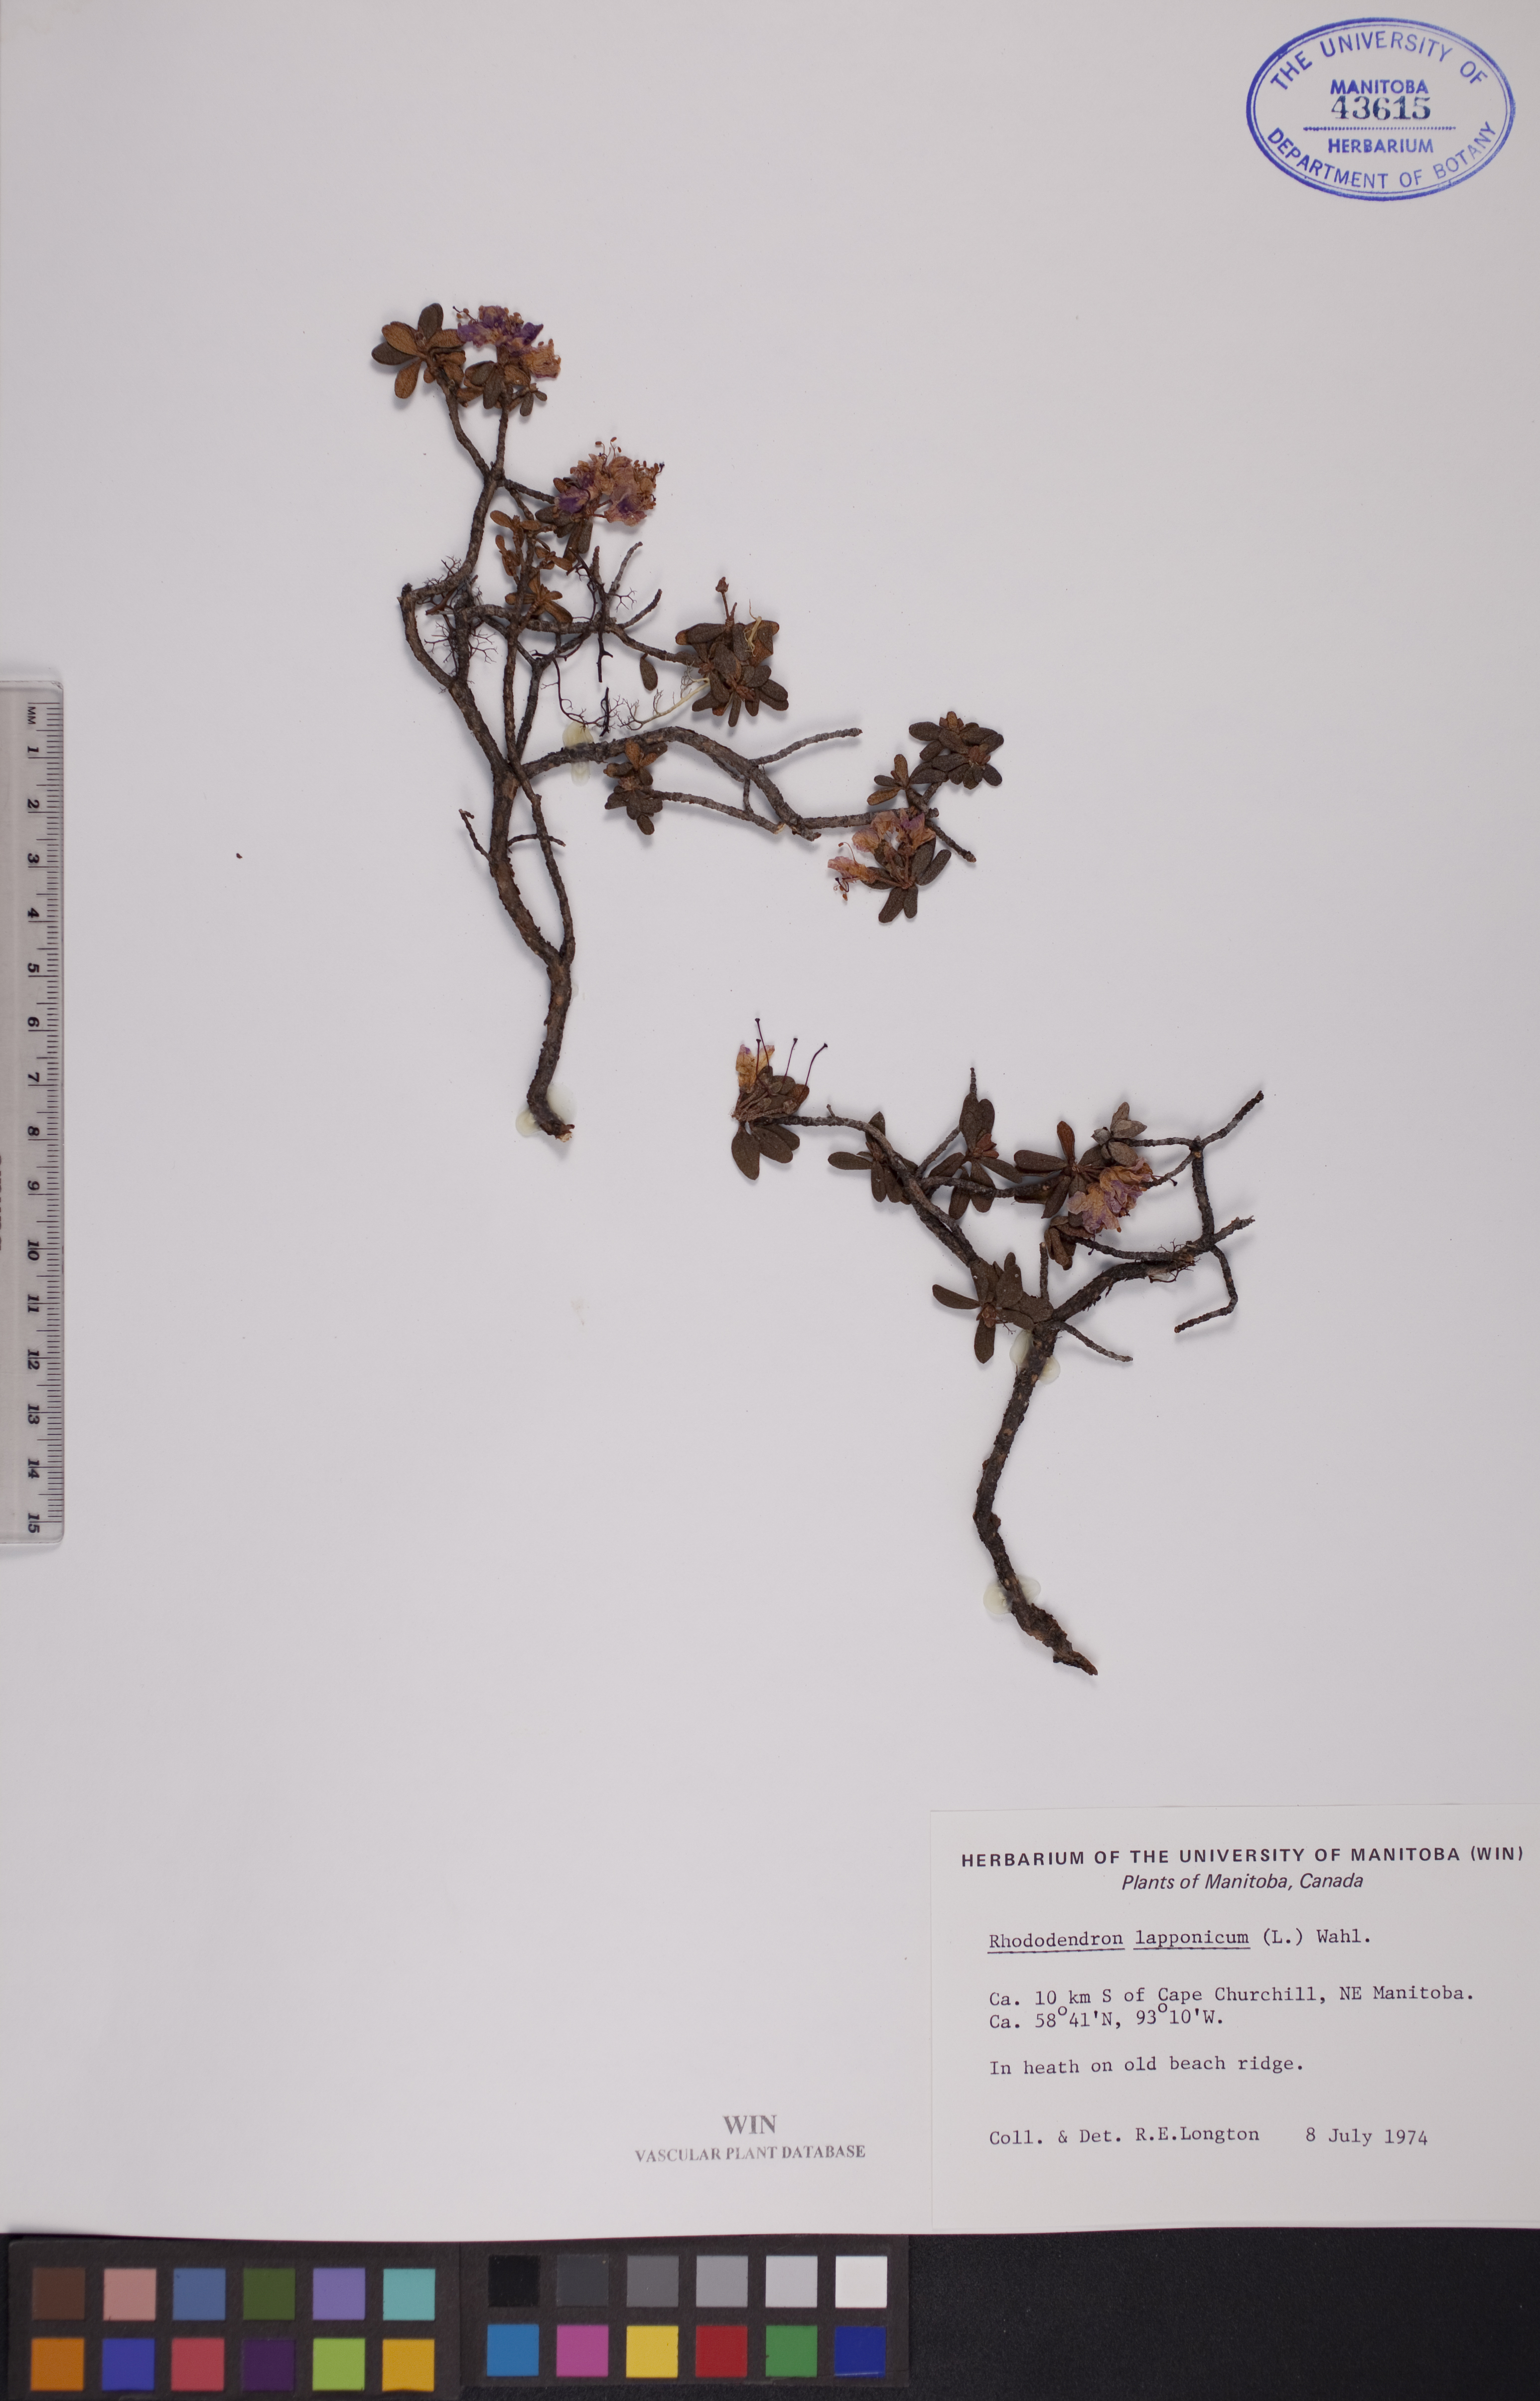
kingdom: Plantae
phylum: Tracheophyta
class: Magnoliopsida
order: Ericales
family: Ericaceae
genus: Rhododendron
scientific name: Rhododendron lapponicum
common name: Lapland rhododendron
